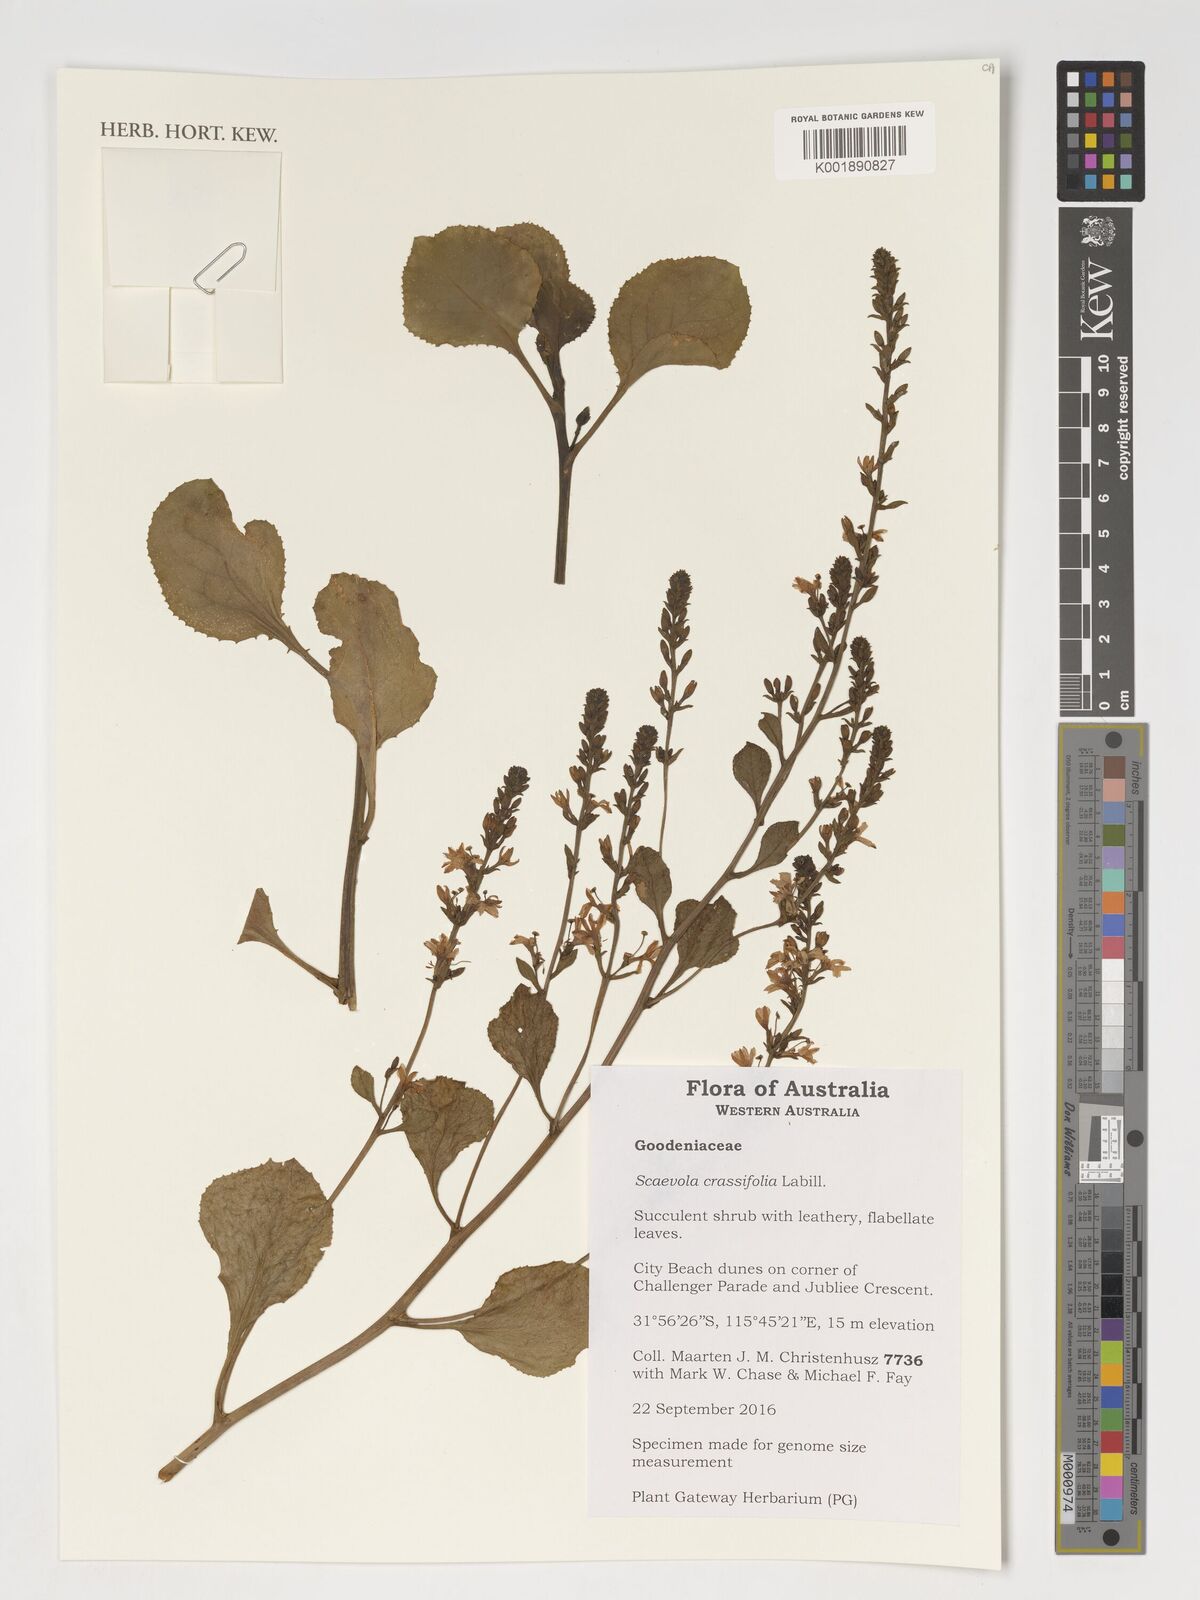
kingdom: Plantae
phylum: Tracheophyta
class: Magnoliopsida
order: Asterales
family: Goodeniaceae
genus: Scaevola
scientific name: Scaevola crassifolia
